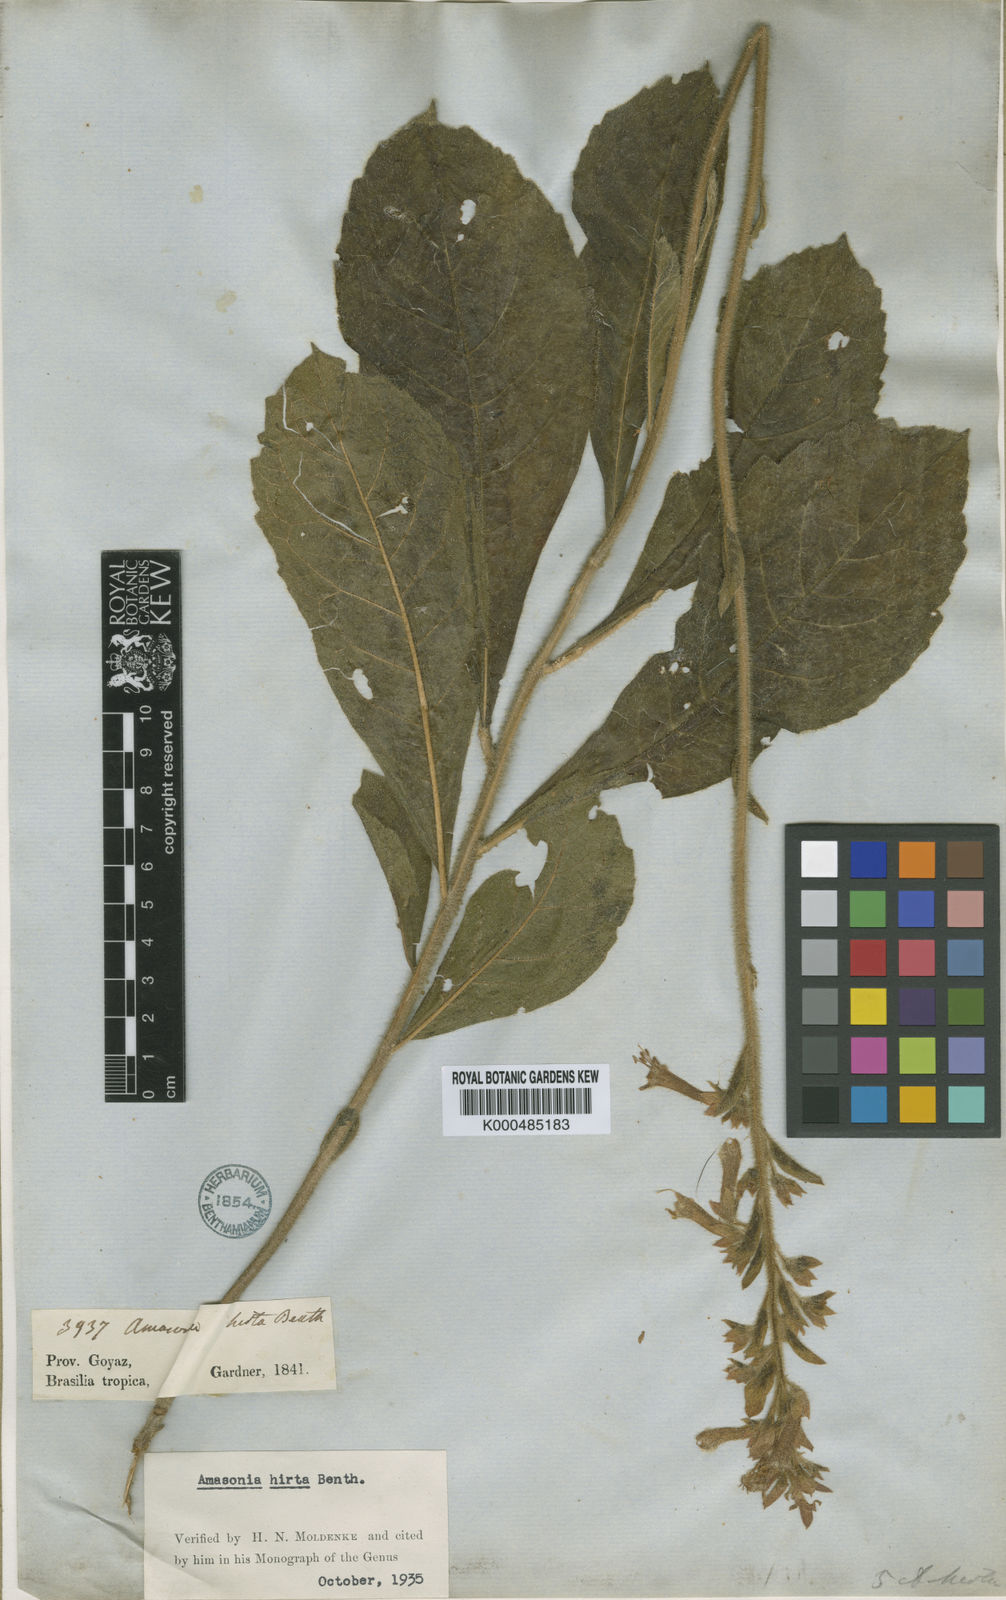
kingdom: Plantae
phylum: Tracheophyta
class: Magnoliopsida
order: Lamiales
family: Lamiaceae
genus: Amasonia
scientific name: Amasonia hirta
